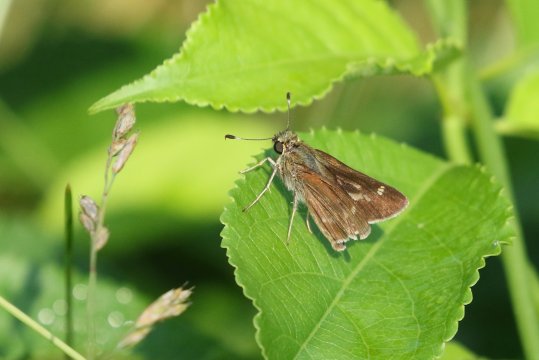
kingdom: Animalia
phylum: Arthropoda
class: Insecta
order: Lepidoptera
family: Hesperiidae
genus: Vernia
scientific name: Vernia verna
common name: Little Glassywing
